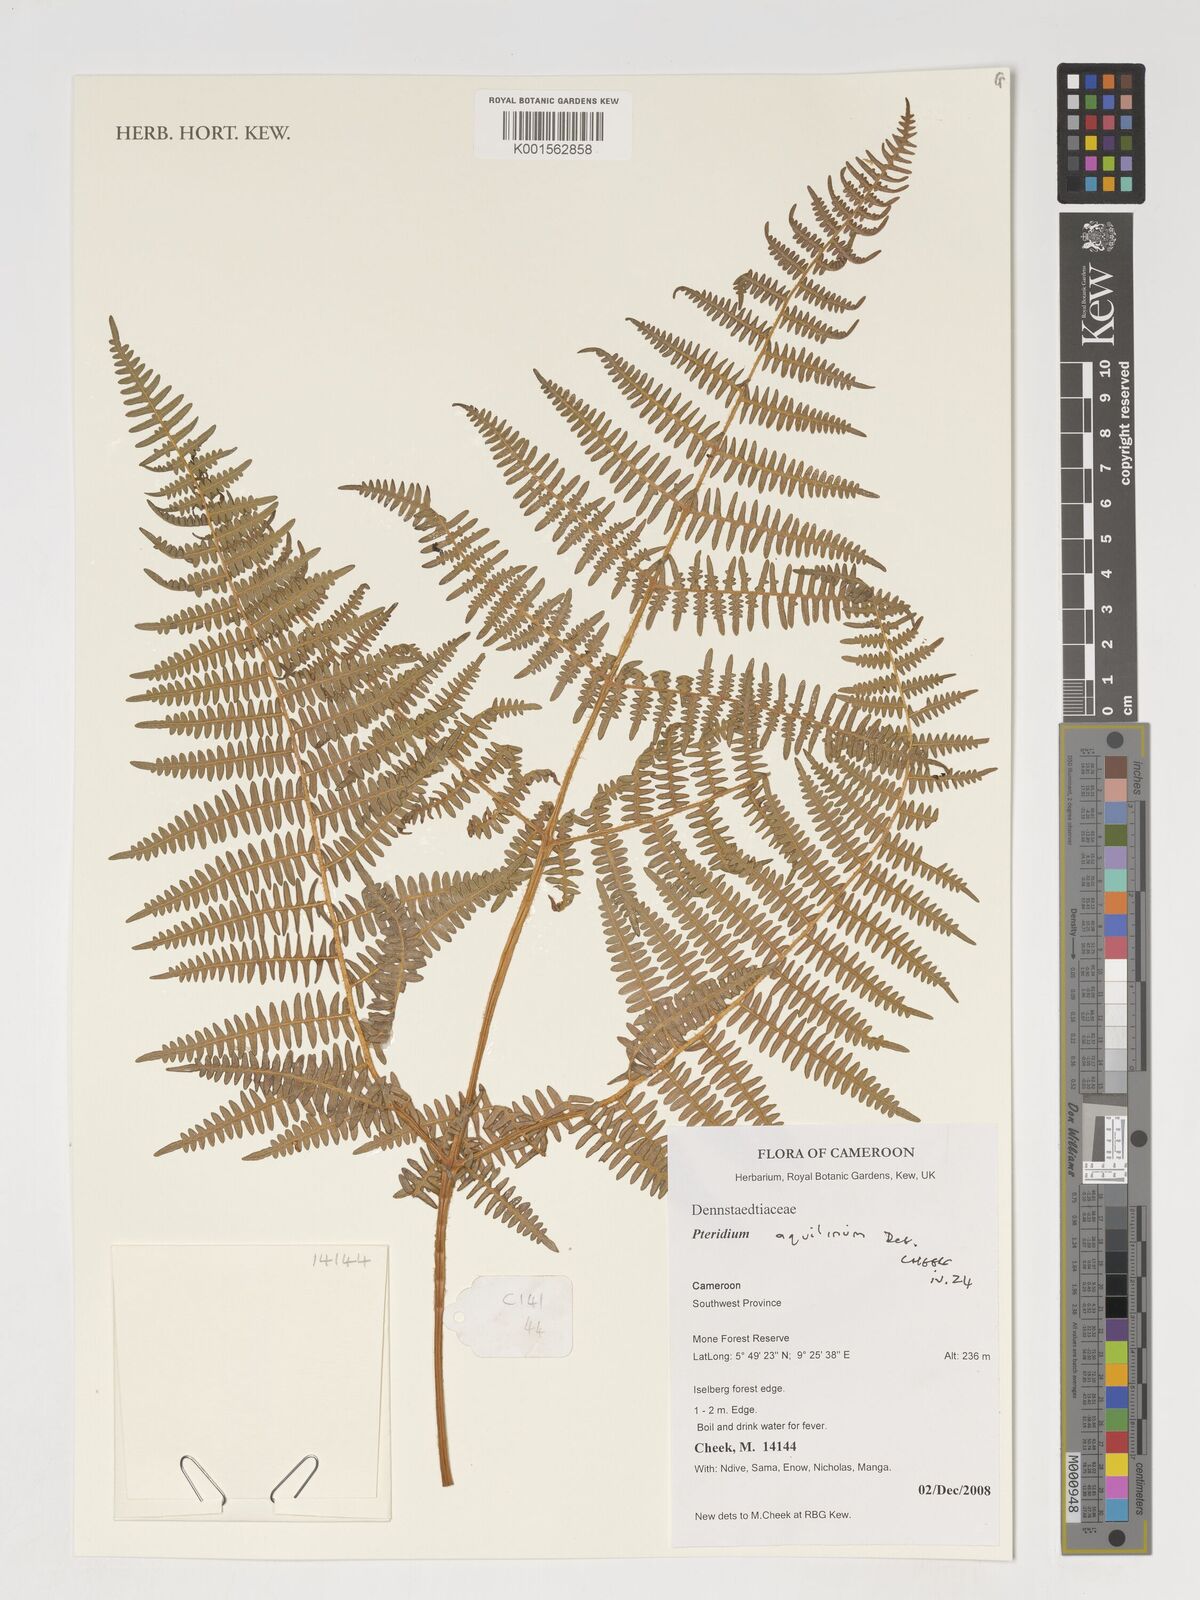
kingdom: Plantae
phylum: Tracheophyta
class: Polypodiopsida
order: Polypodiales
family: Dennstaedtiaceae
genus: Pteridium
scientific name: Pteridium aquilinum
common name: Bracken
